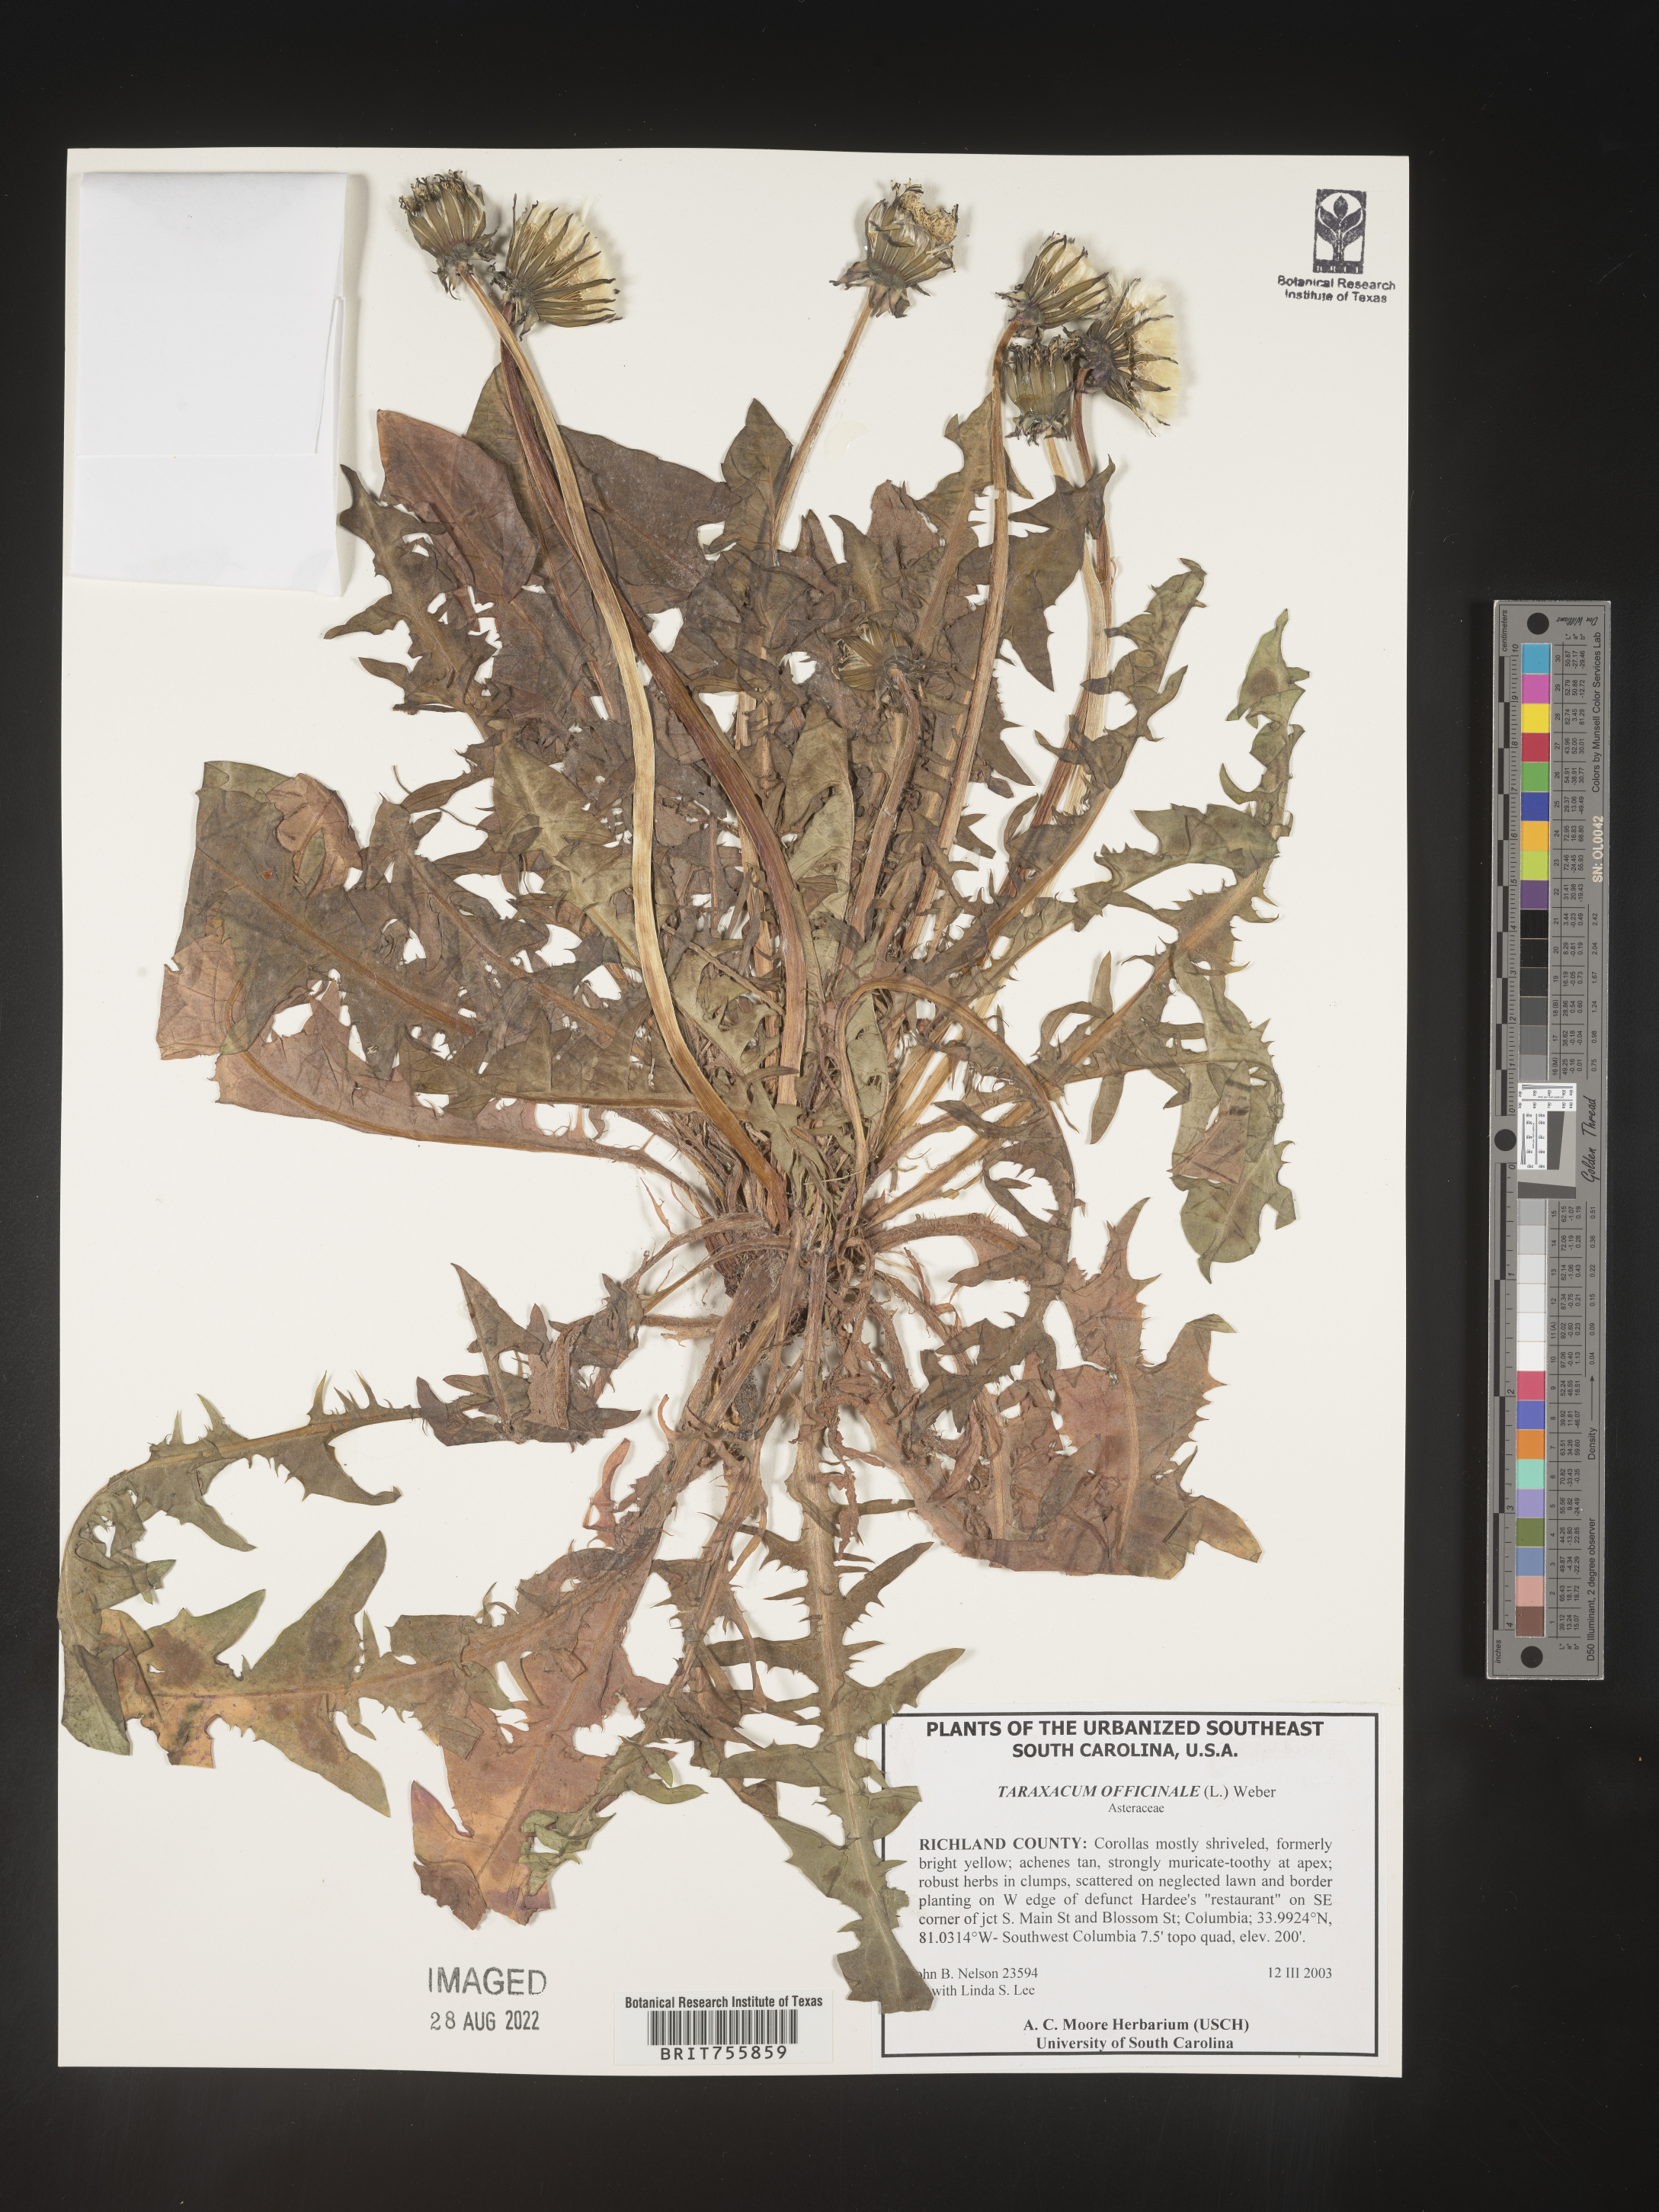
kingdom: Plantae
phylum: Tracheophyta
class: Magnoliopsida
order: Asterales
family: Asteraceae
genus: Taraxacum
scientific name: Taraxacum officinale
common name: Common dandelion
